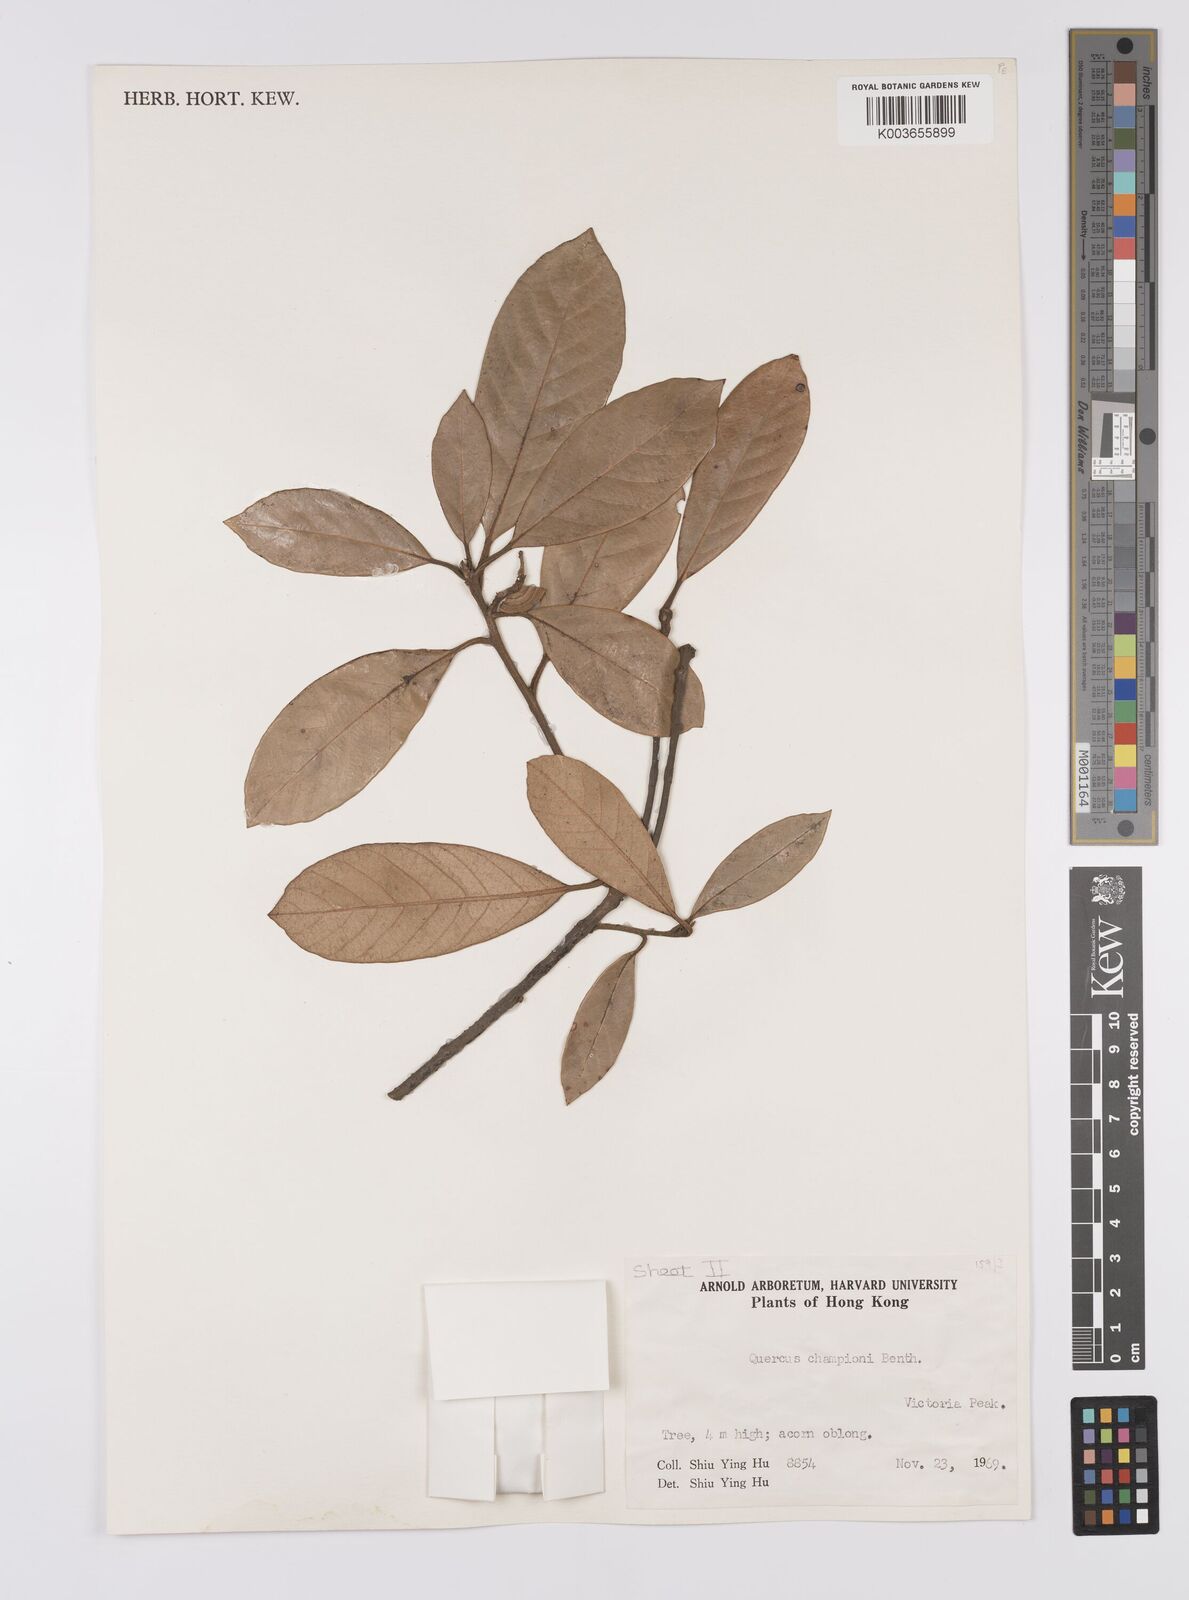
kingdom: Plantae
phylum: Tracheophyta
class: Magnoliopsida
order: Fagales
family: Fagaceae
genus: Quercus
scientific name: Quercus championii
